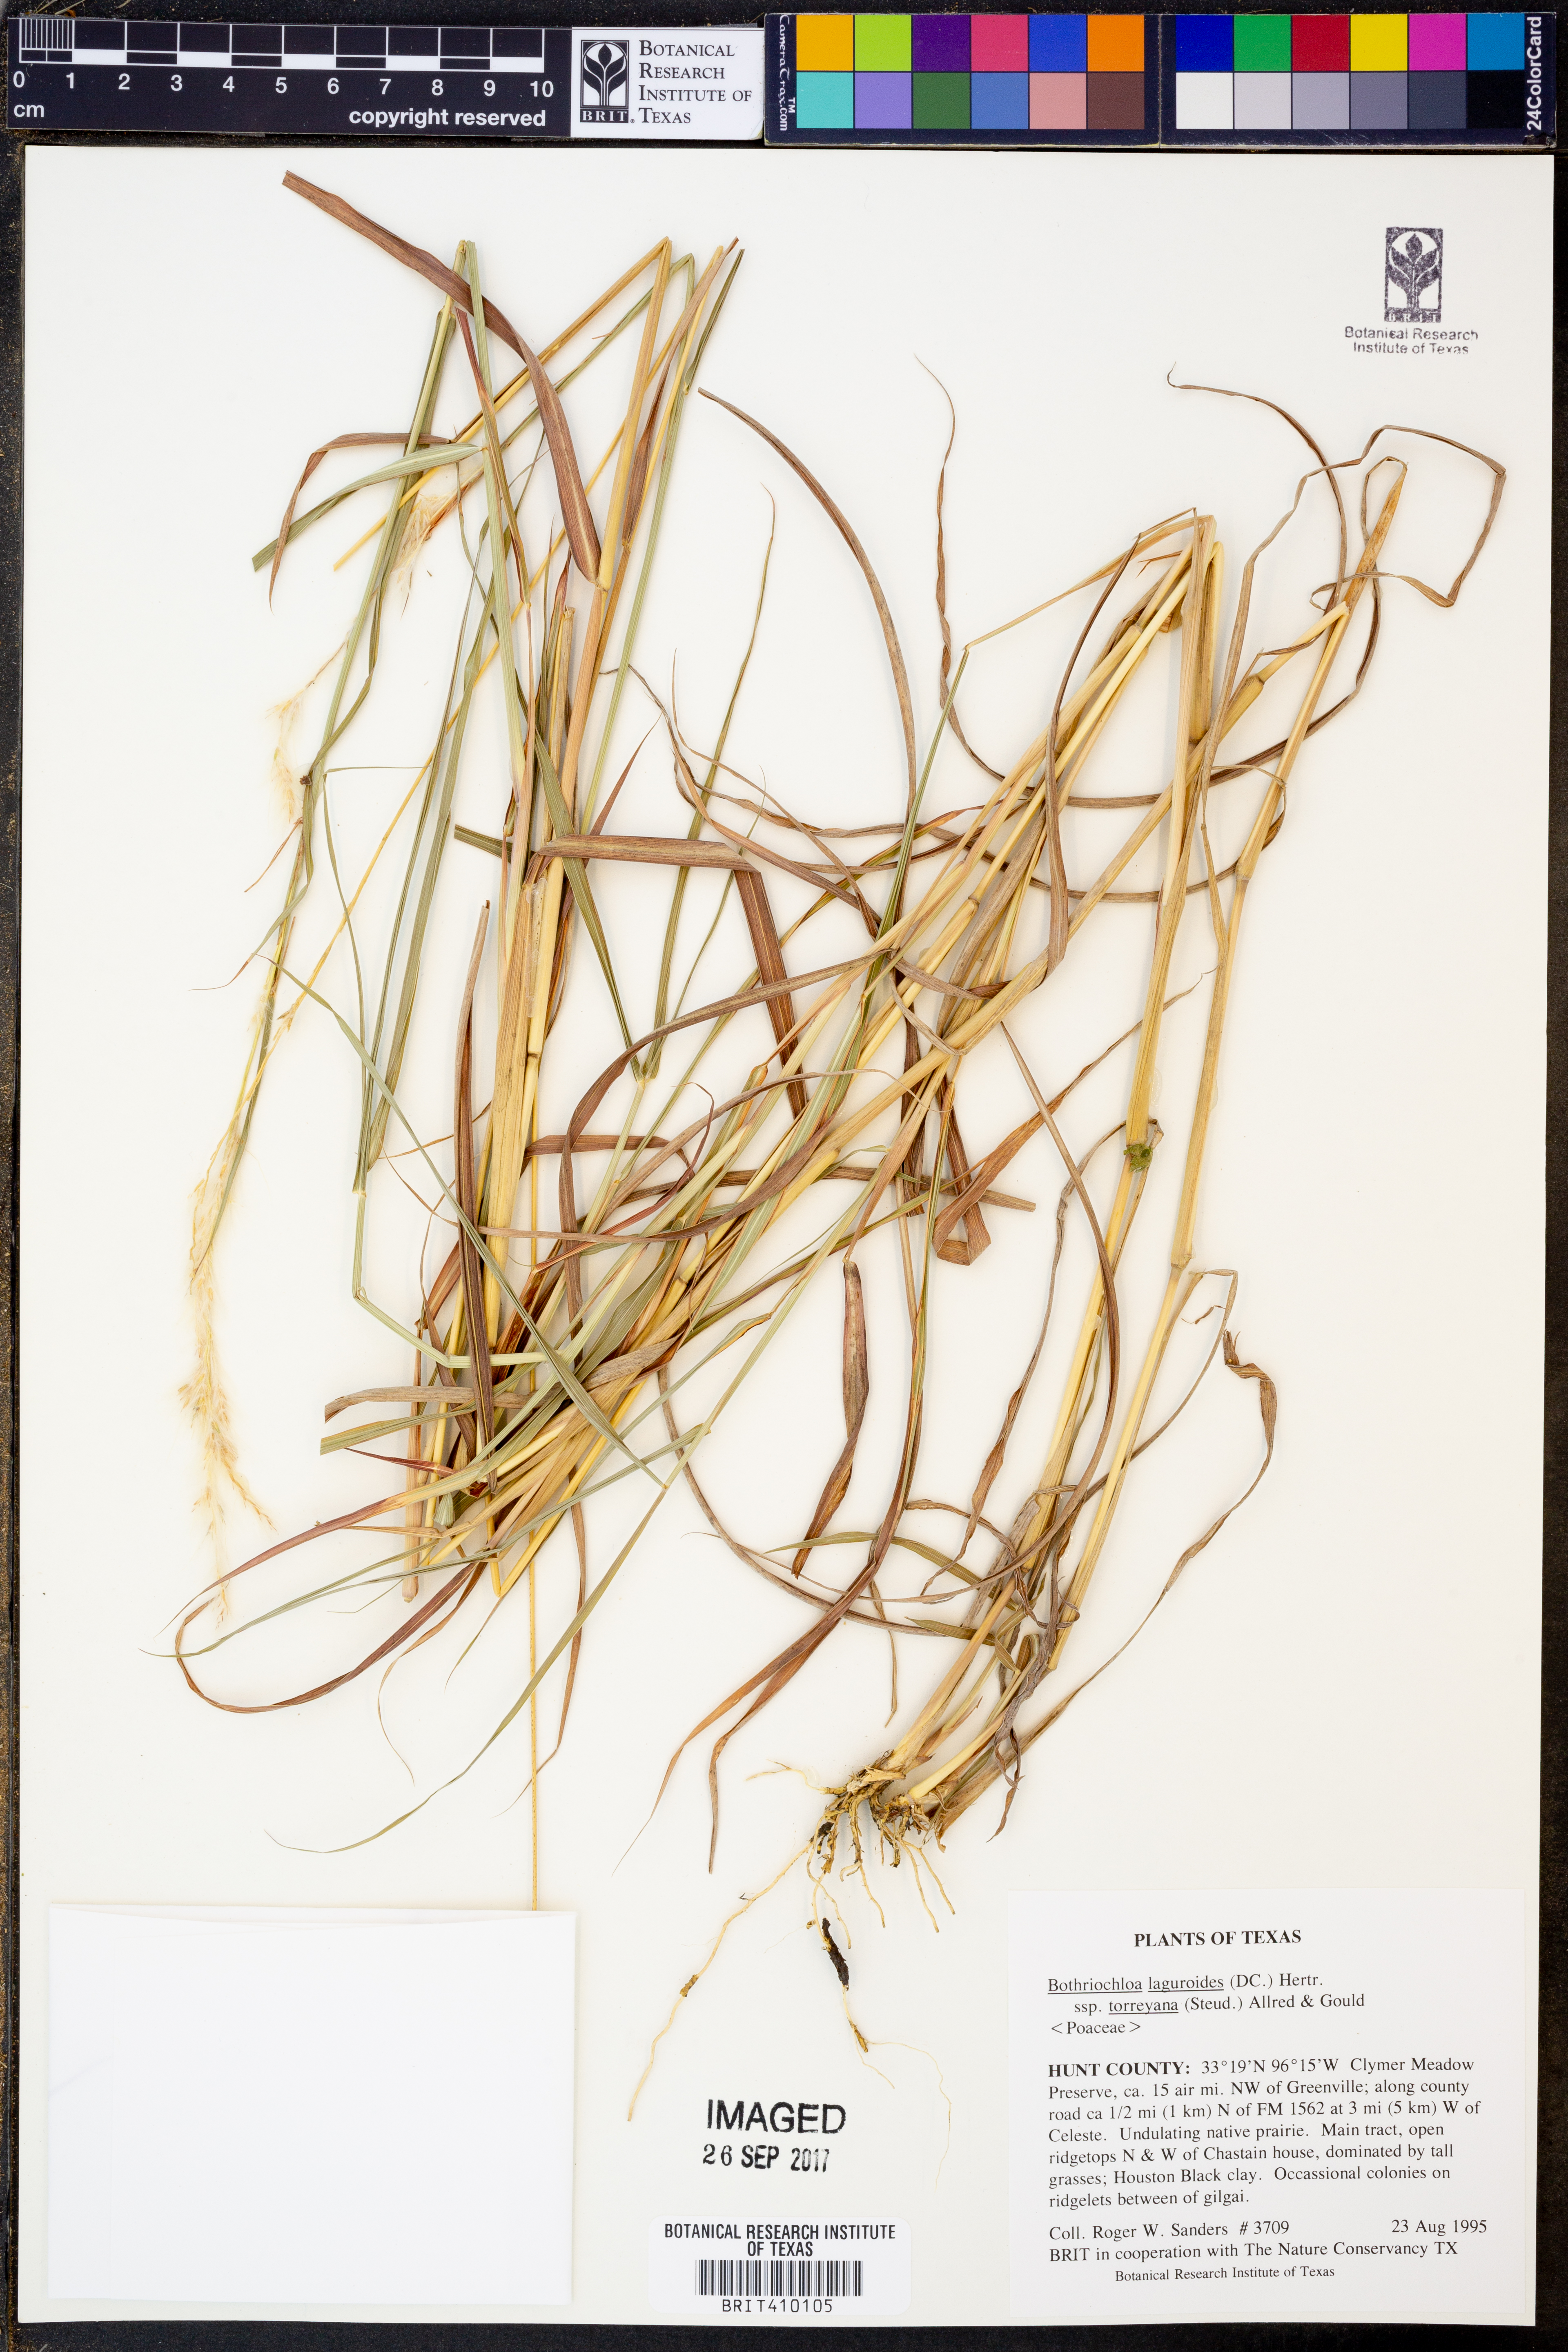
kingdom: Plantae
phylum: Tracheophyta
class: Liliopsida
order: Poales
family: Poaceae
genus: Bothriochloa
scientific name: Bothriochloa torreyana
